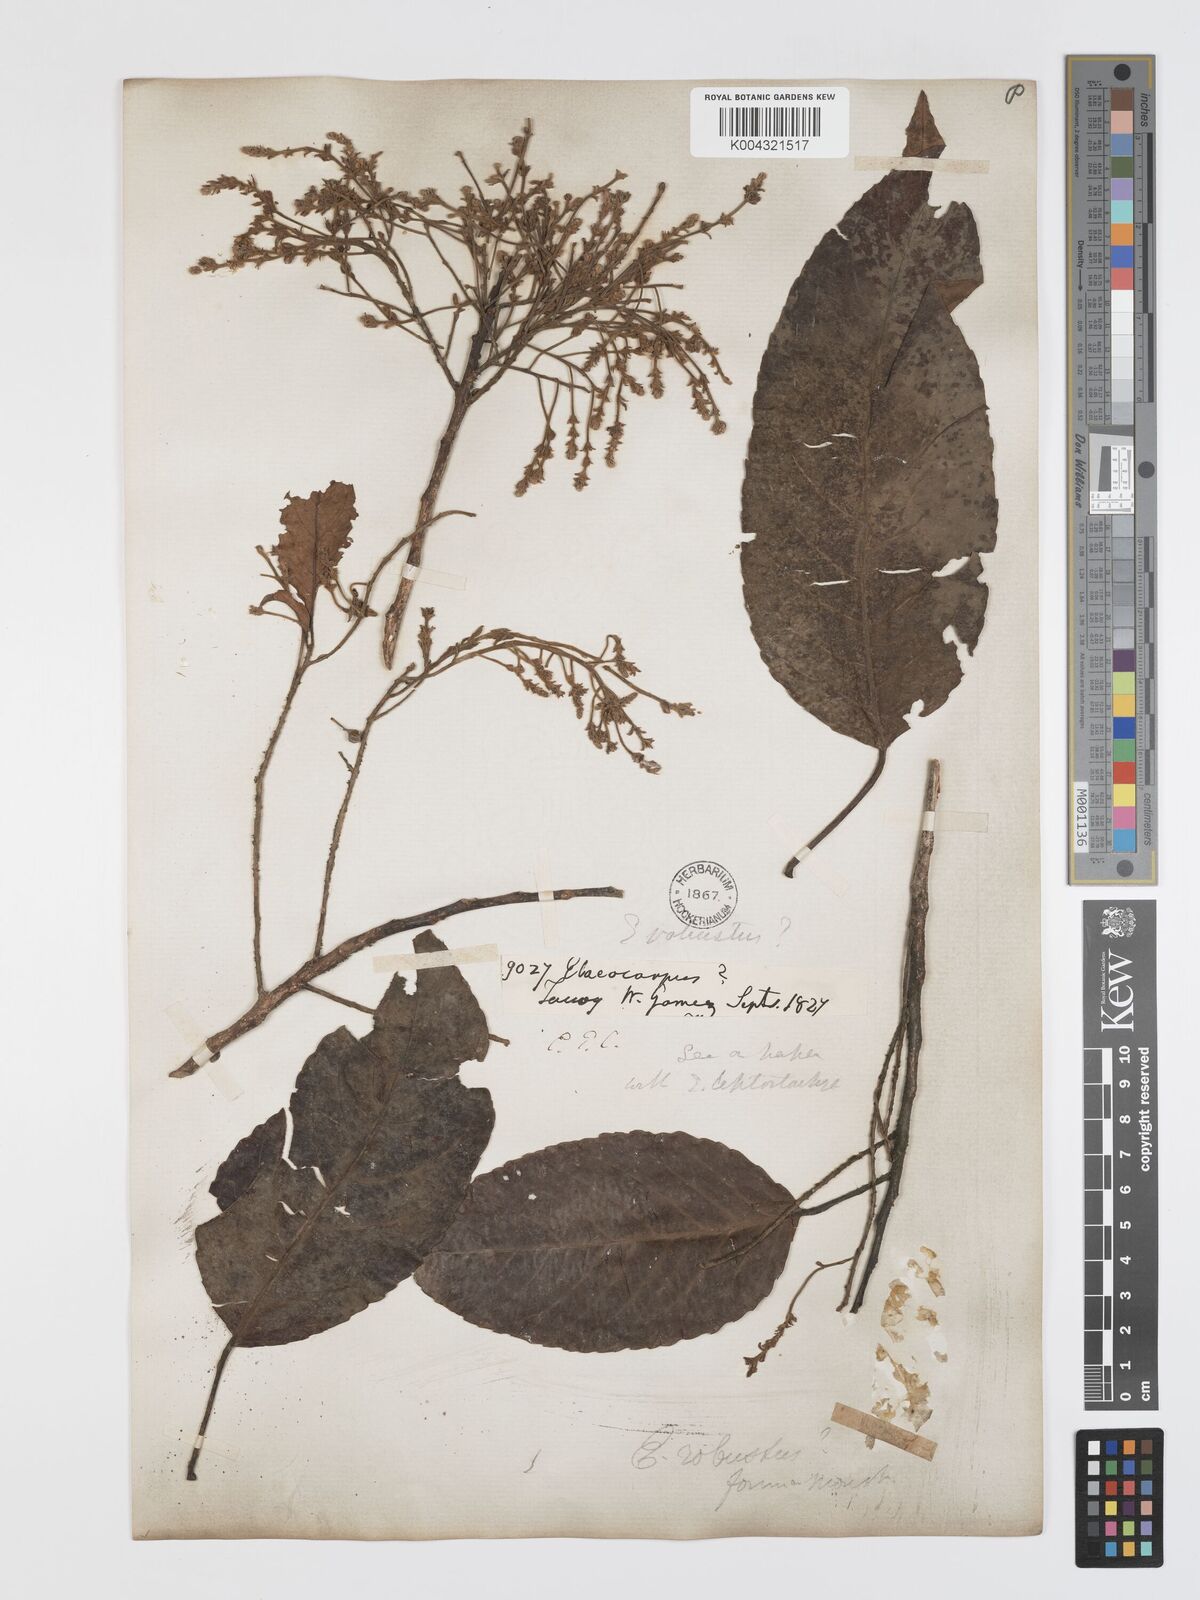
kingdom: Plantae
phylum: Tracheophyta
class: Magnoliopsida
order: Oxalidales
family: Elaeocarpaceae
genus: Elaeocarpus
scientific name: Elaeocarpus robustus
